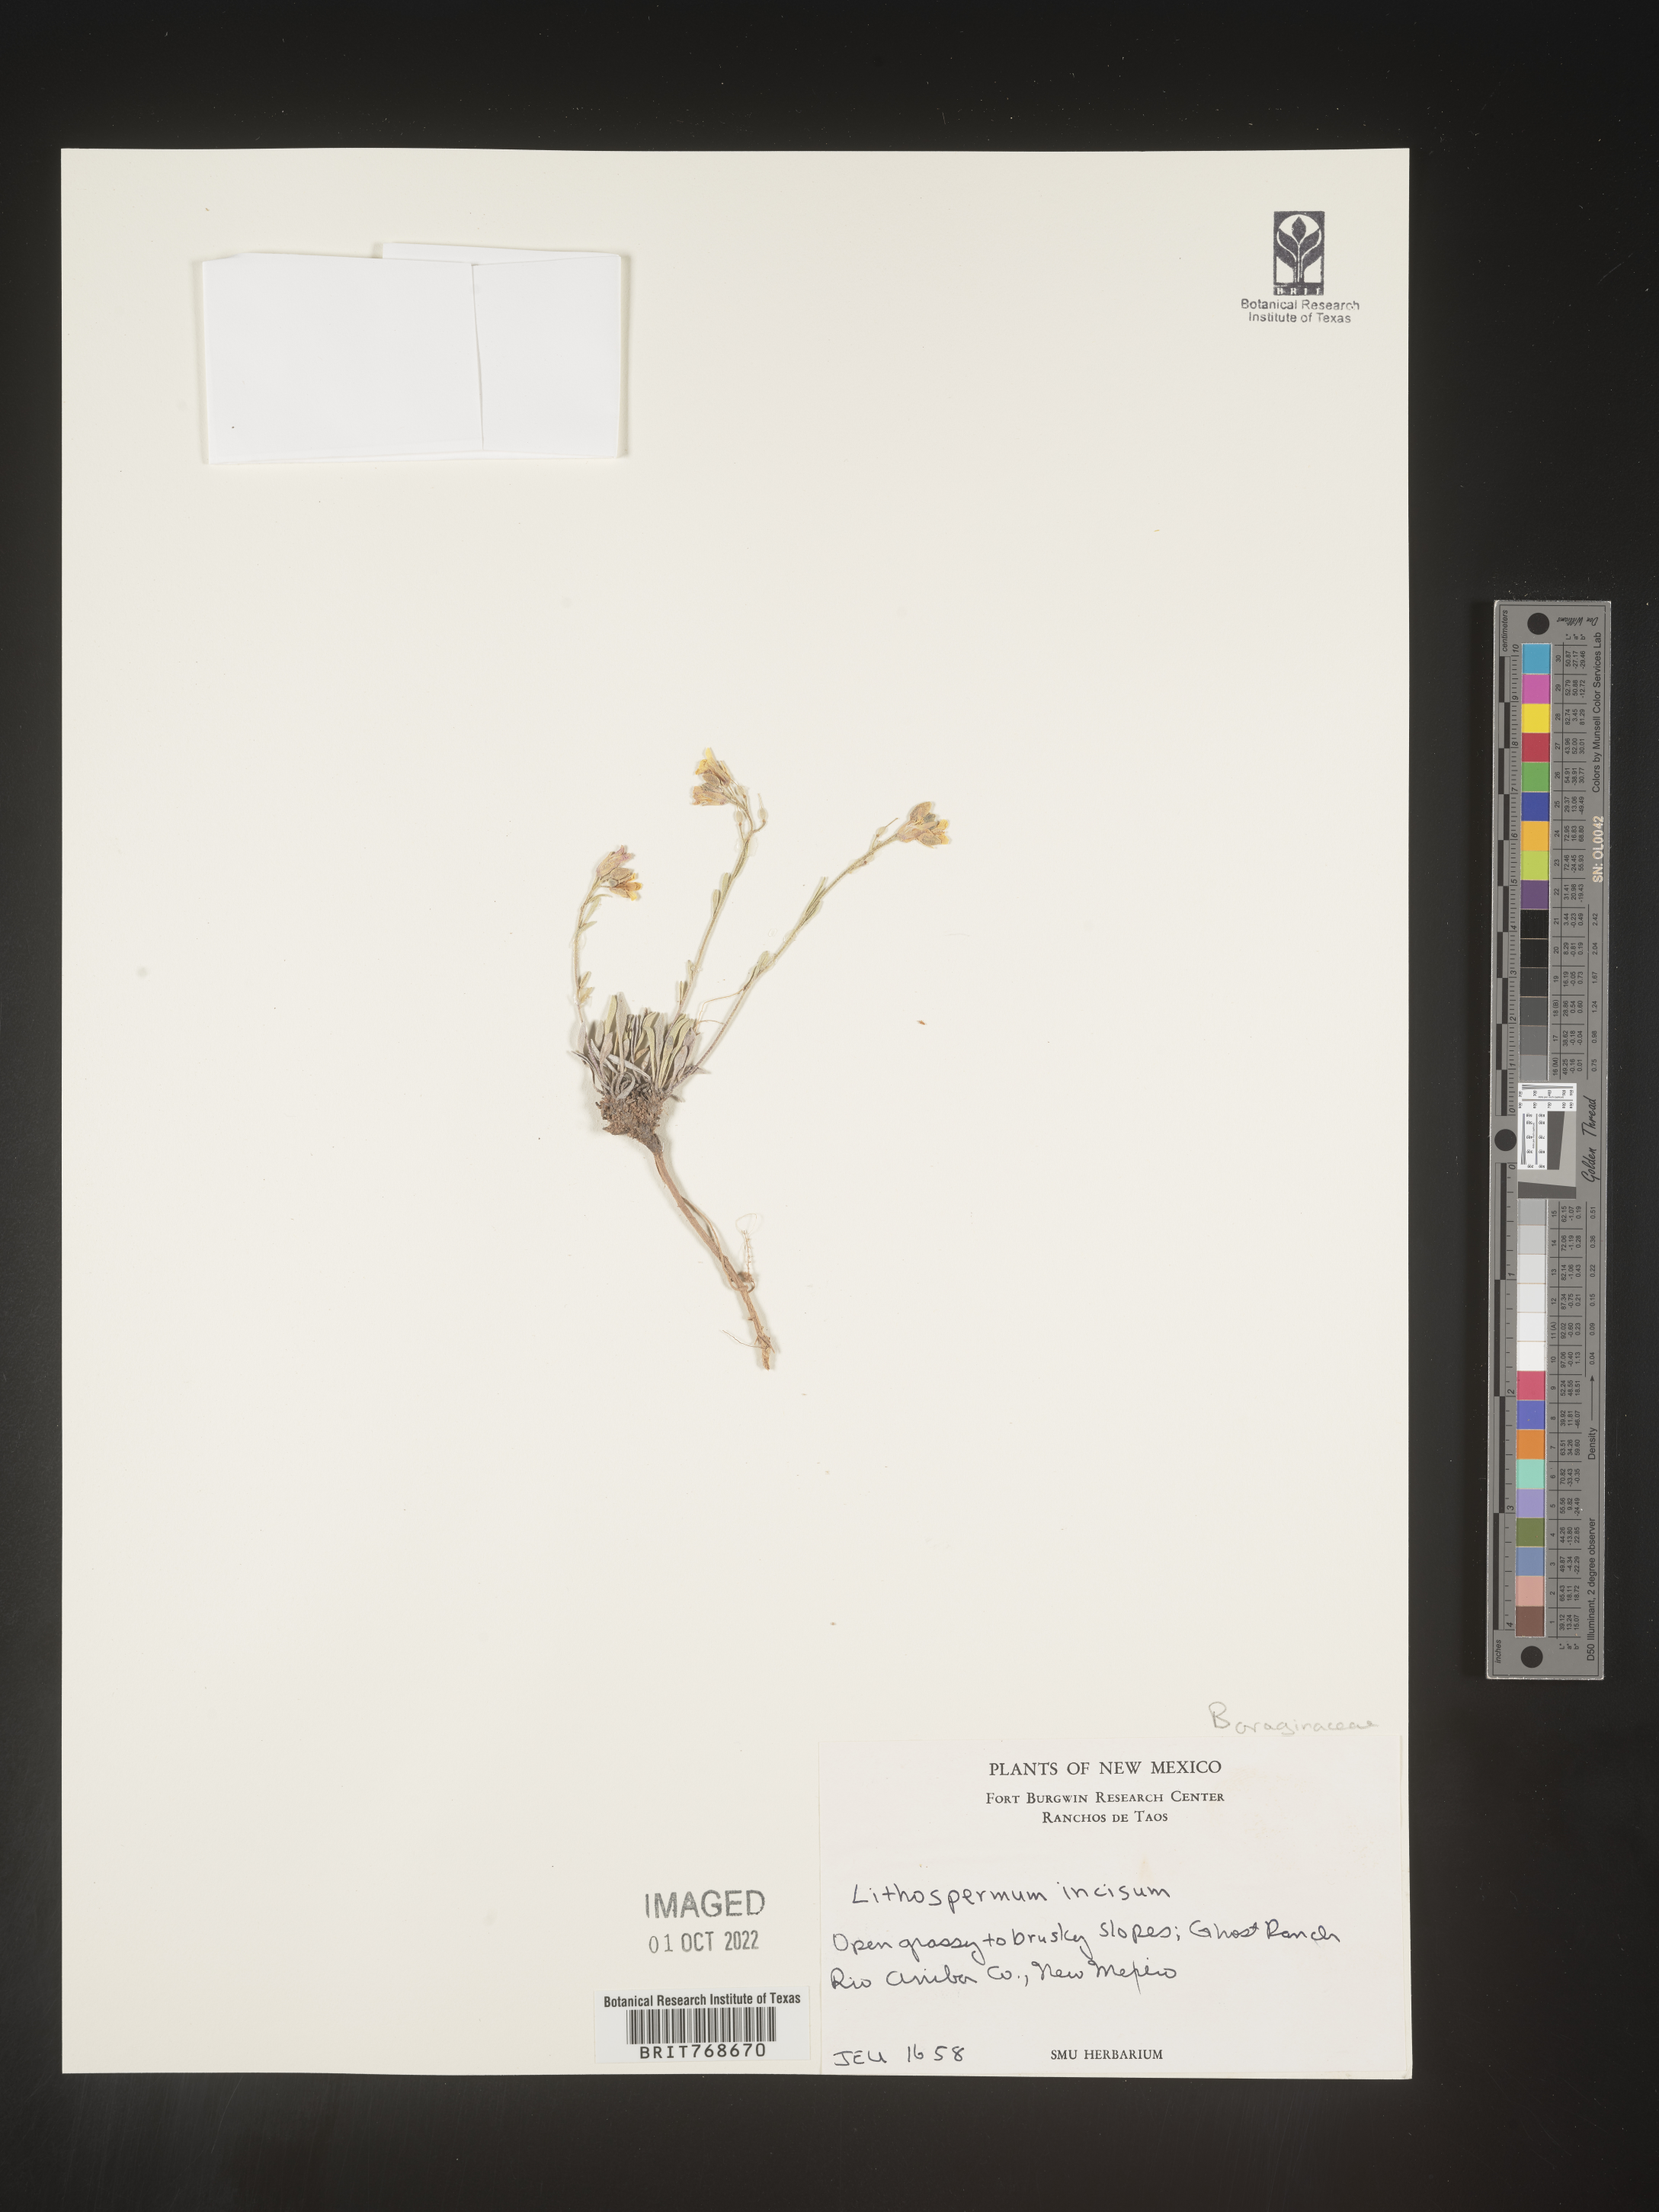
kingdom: Plantae
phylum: Tracheophyta
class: Magnoliopsida
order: Boraginales
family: Boraginaceae
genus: Lithospermum
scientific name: Lithospermum incisum
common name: Fringed gromwell
